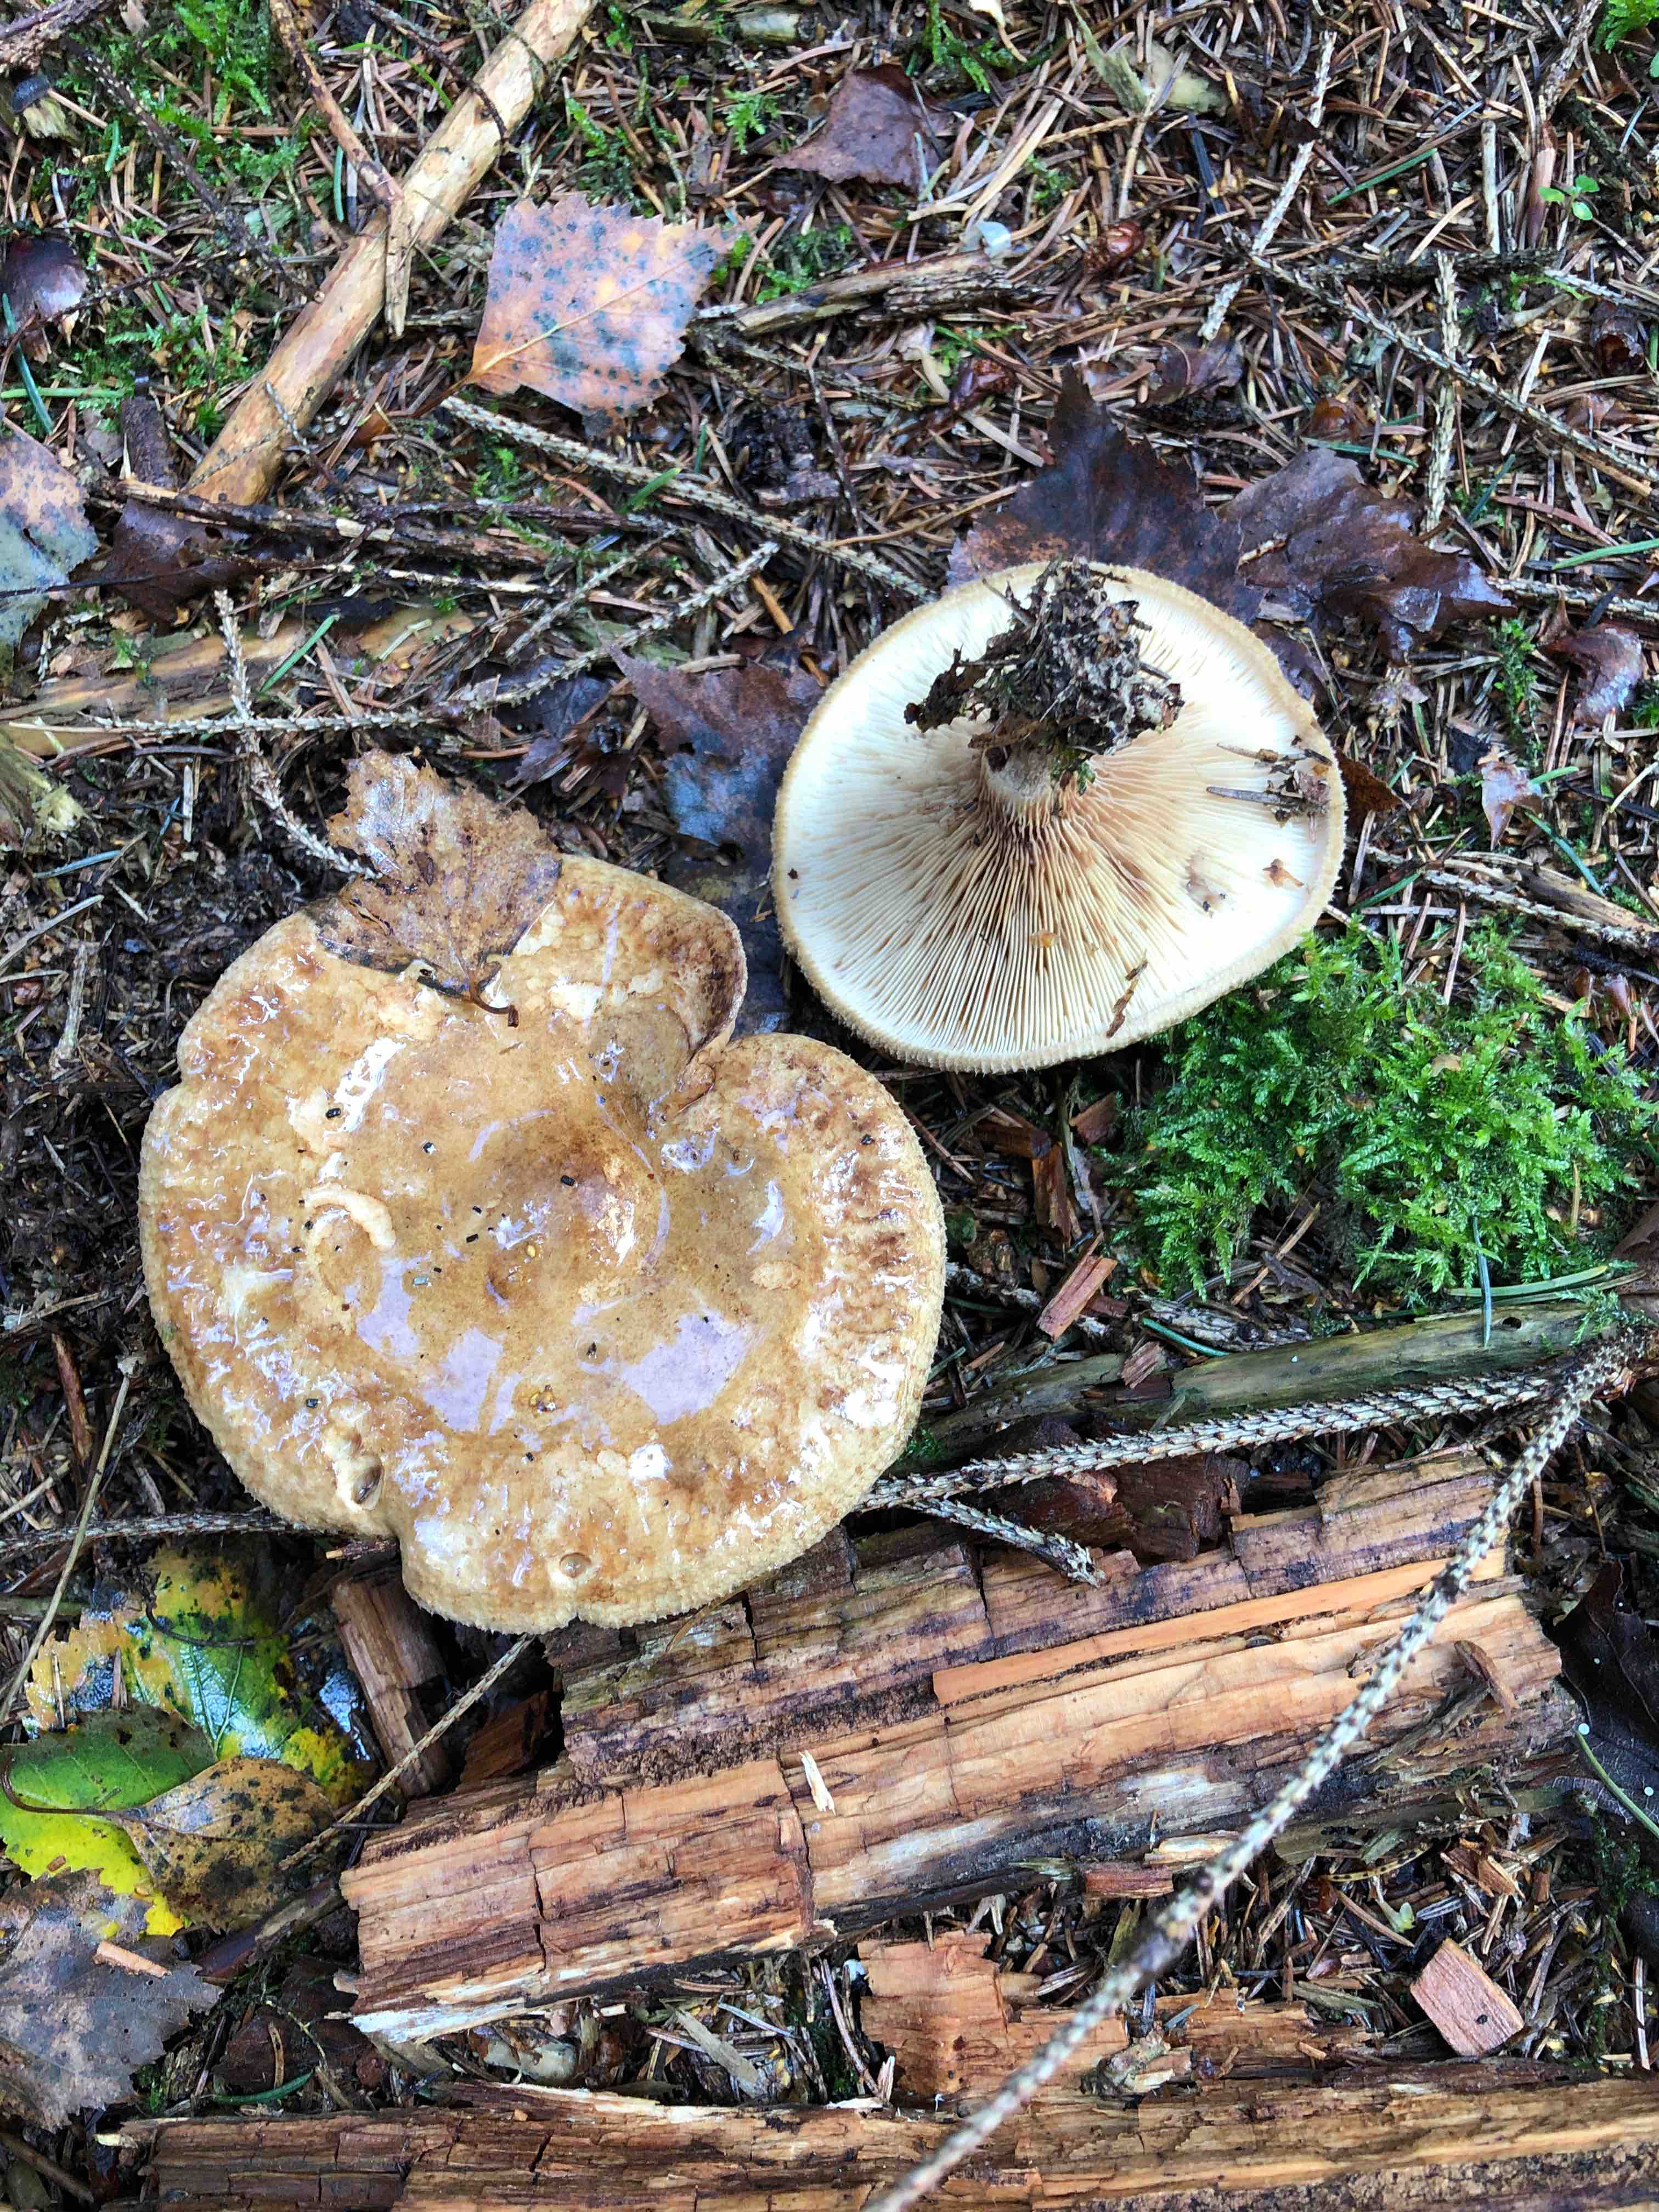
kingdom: Fungi
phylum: Basidiomycota
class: Agaricomycetes
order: Boletales
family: Paxillaceae
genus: Paxillus
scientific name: Paxillus involutus
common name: almindelig netbladhat
